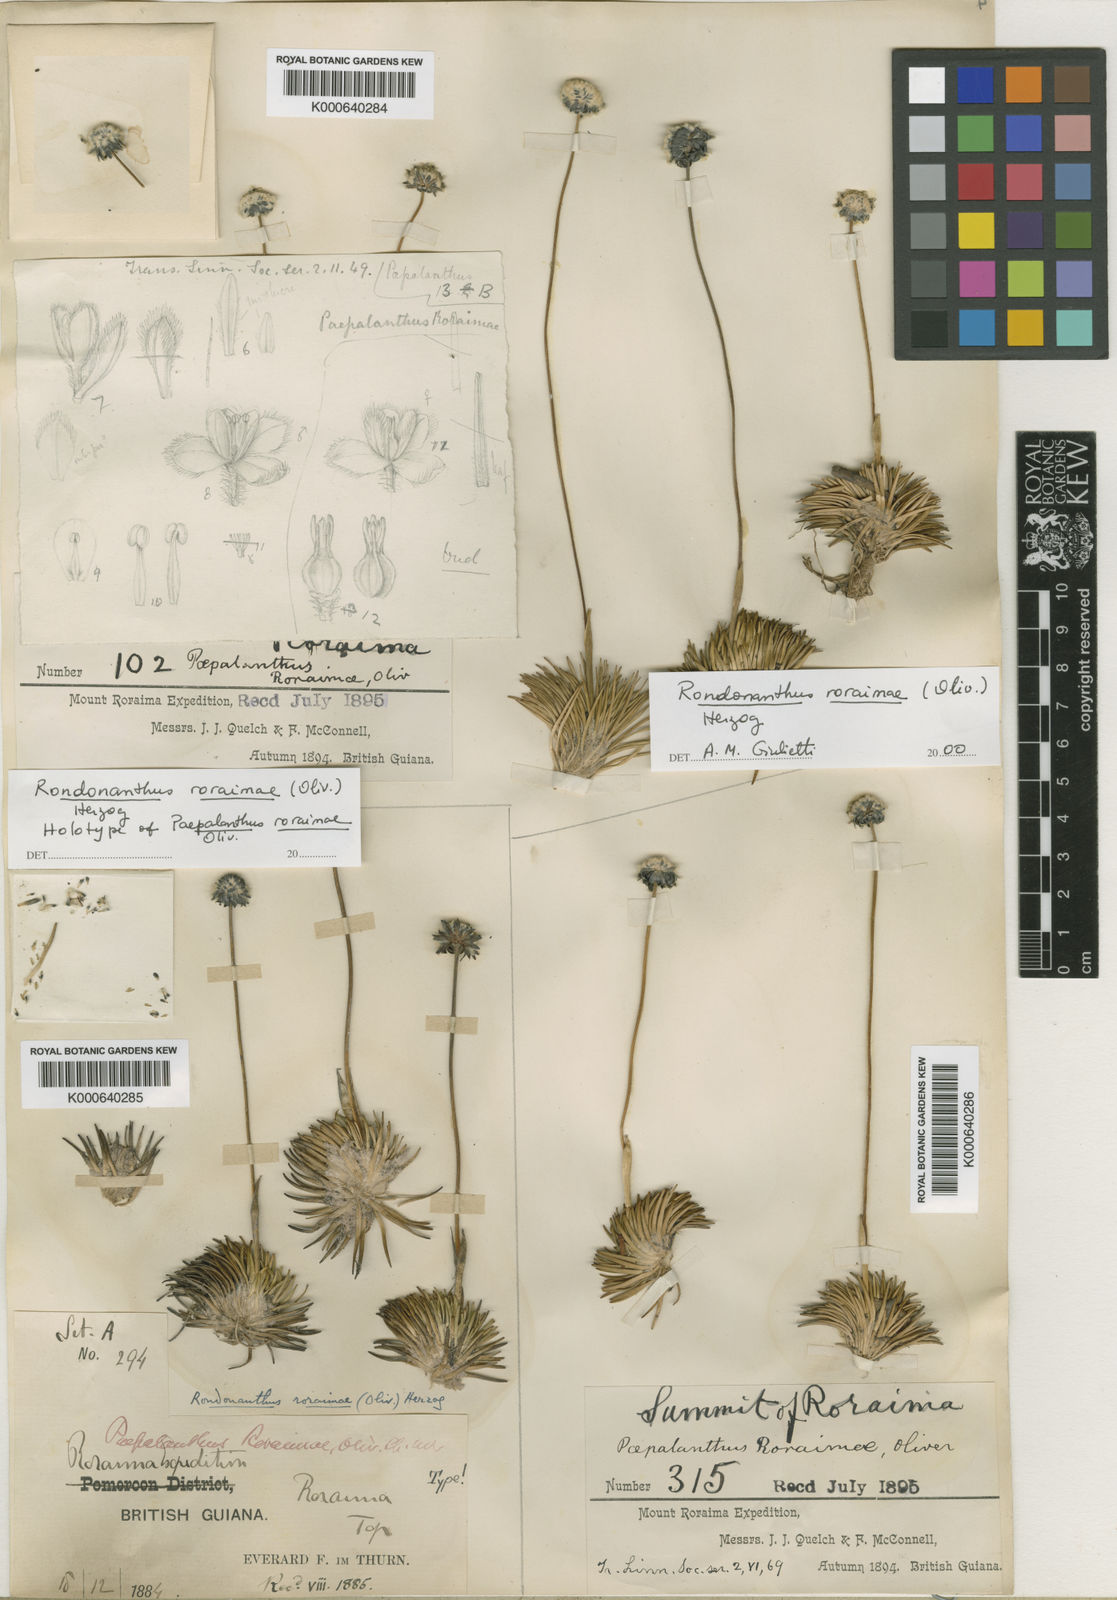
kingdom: Plantae
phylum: Tracheophyta
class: Liliopsida
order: Poales
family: Eriocaulaceae
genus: Rondonanthus
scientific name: Rondonanthus roraimae
